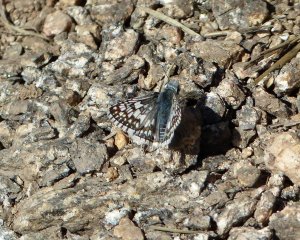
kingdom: Animalia
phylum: Arthropoda
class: Insecta
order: Lepidoptera
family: Hesperiidae
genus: Pyrgus
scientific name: Pyrgus communis
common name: White Checkered-Skipper
